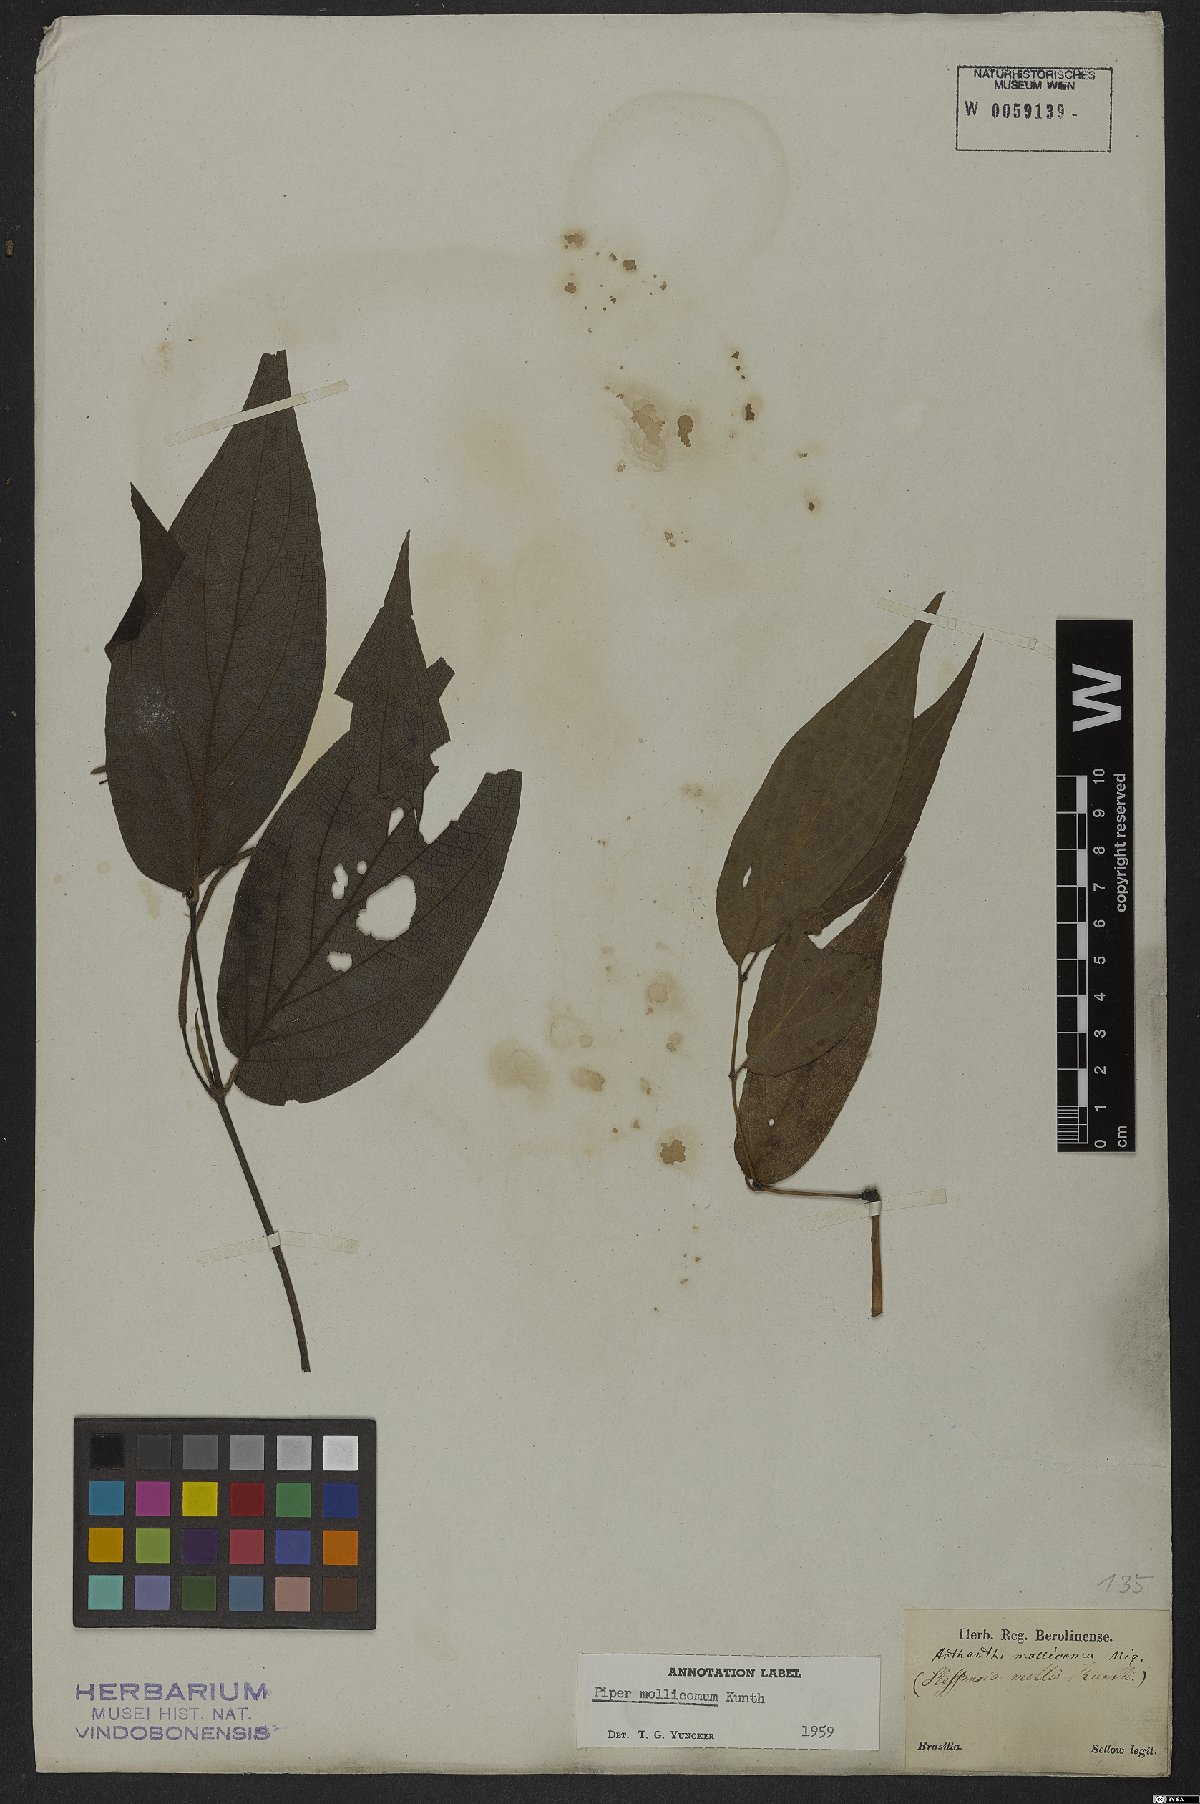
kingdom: Plantae
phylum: Tracheophyta
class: Magnoliopsida
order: Piperales
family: Piperaceae
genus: Piper
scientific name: Piper mollicomum
